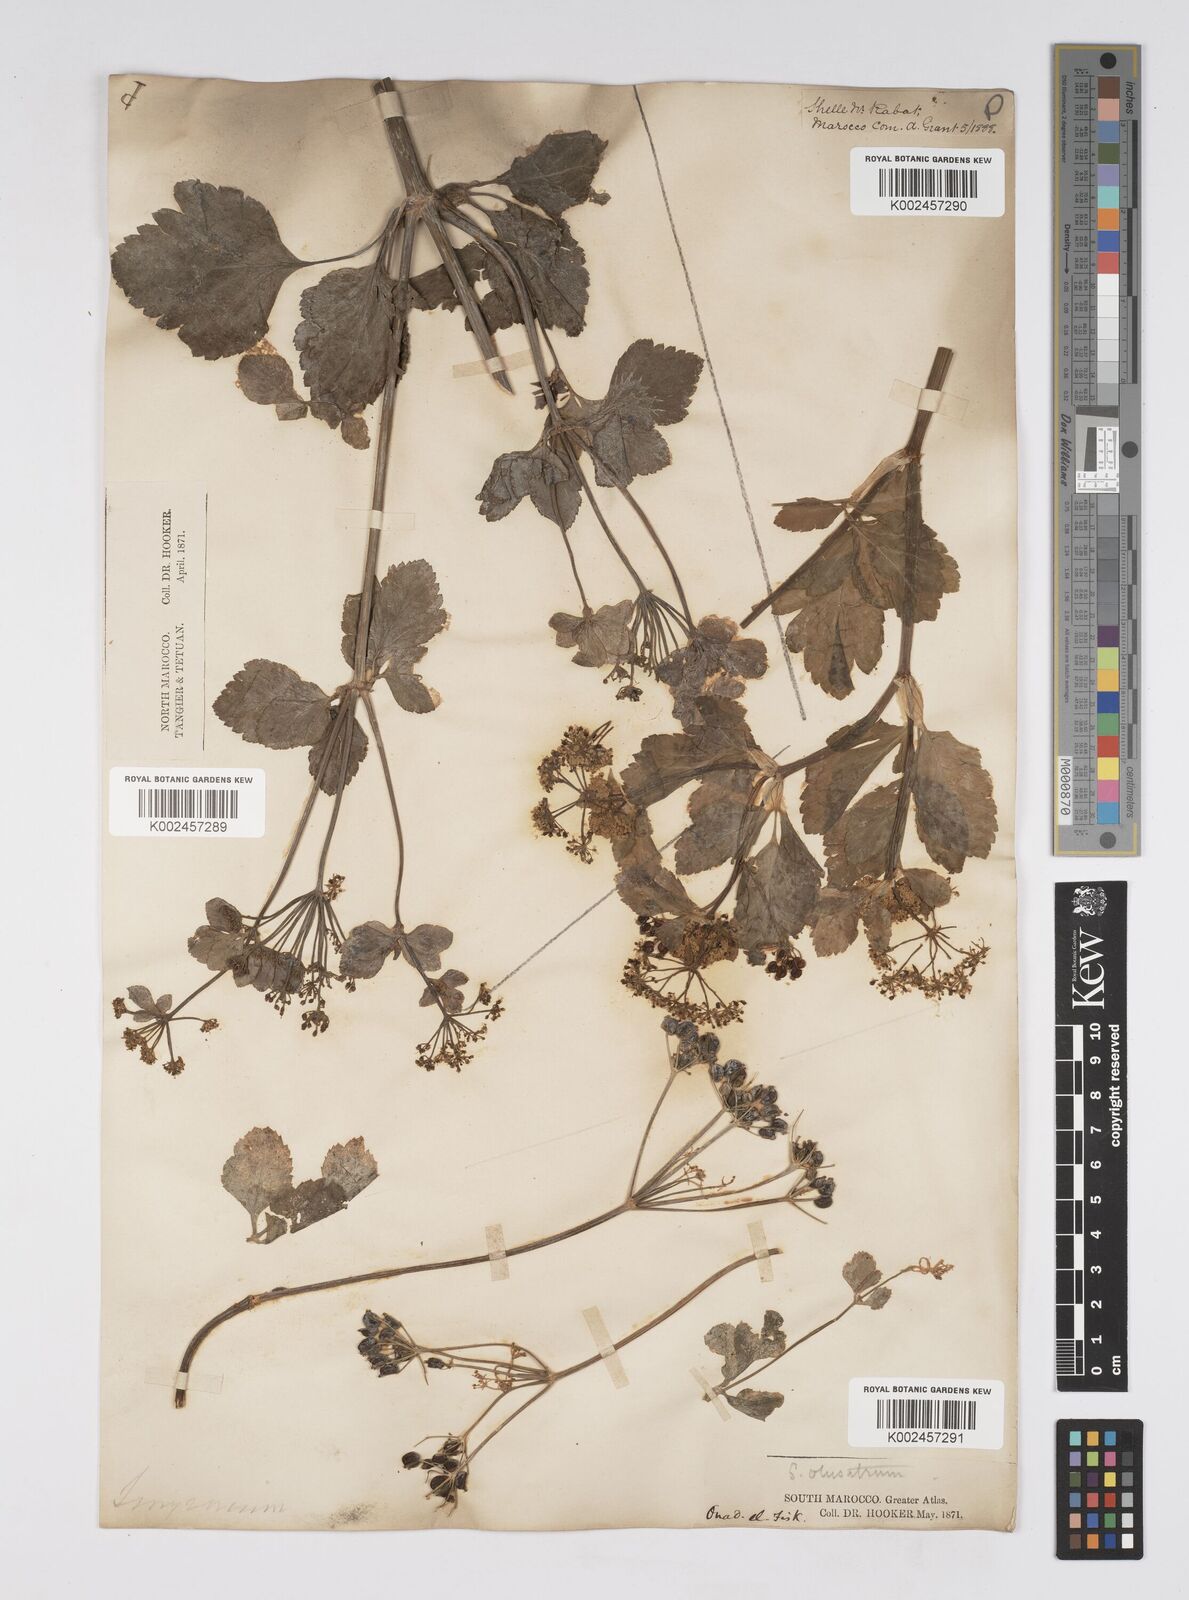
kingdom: Plantae
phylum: Tracheophyta
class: Magnoliopsida
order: Apiales
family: Apiaceae
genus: Smyrnium
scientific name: Smyrnium olusatrum
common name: Alexanders
